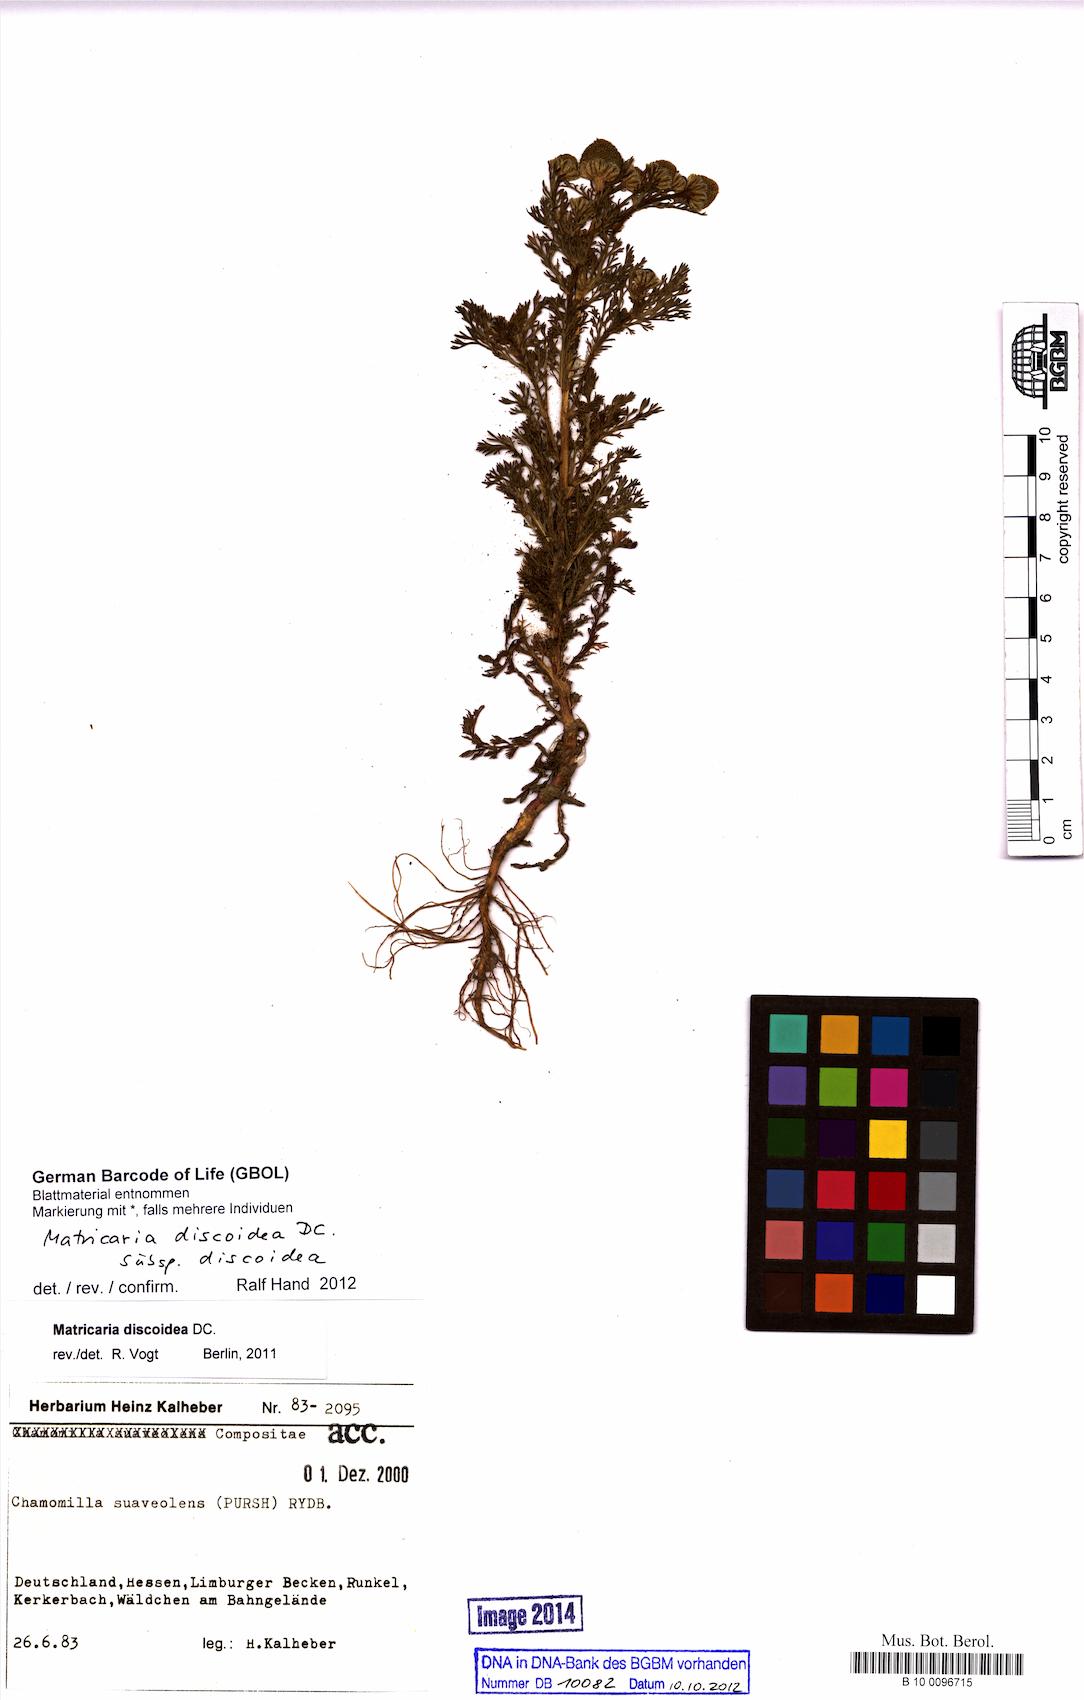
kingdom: Plantae
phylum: Tracheophyta
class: Magnoliopsida
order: Asterales
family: Asteraceae
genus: Matricaria
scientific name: Matricaria discoidea
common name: Disc mayweed
